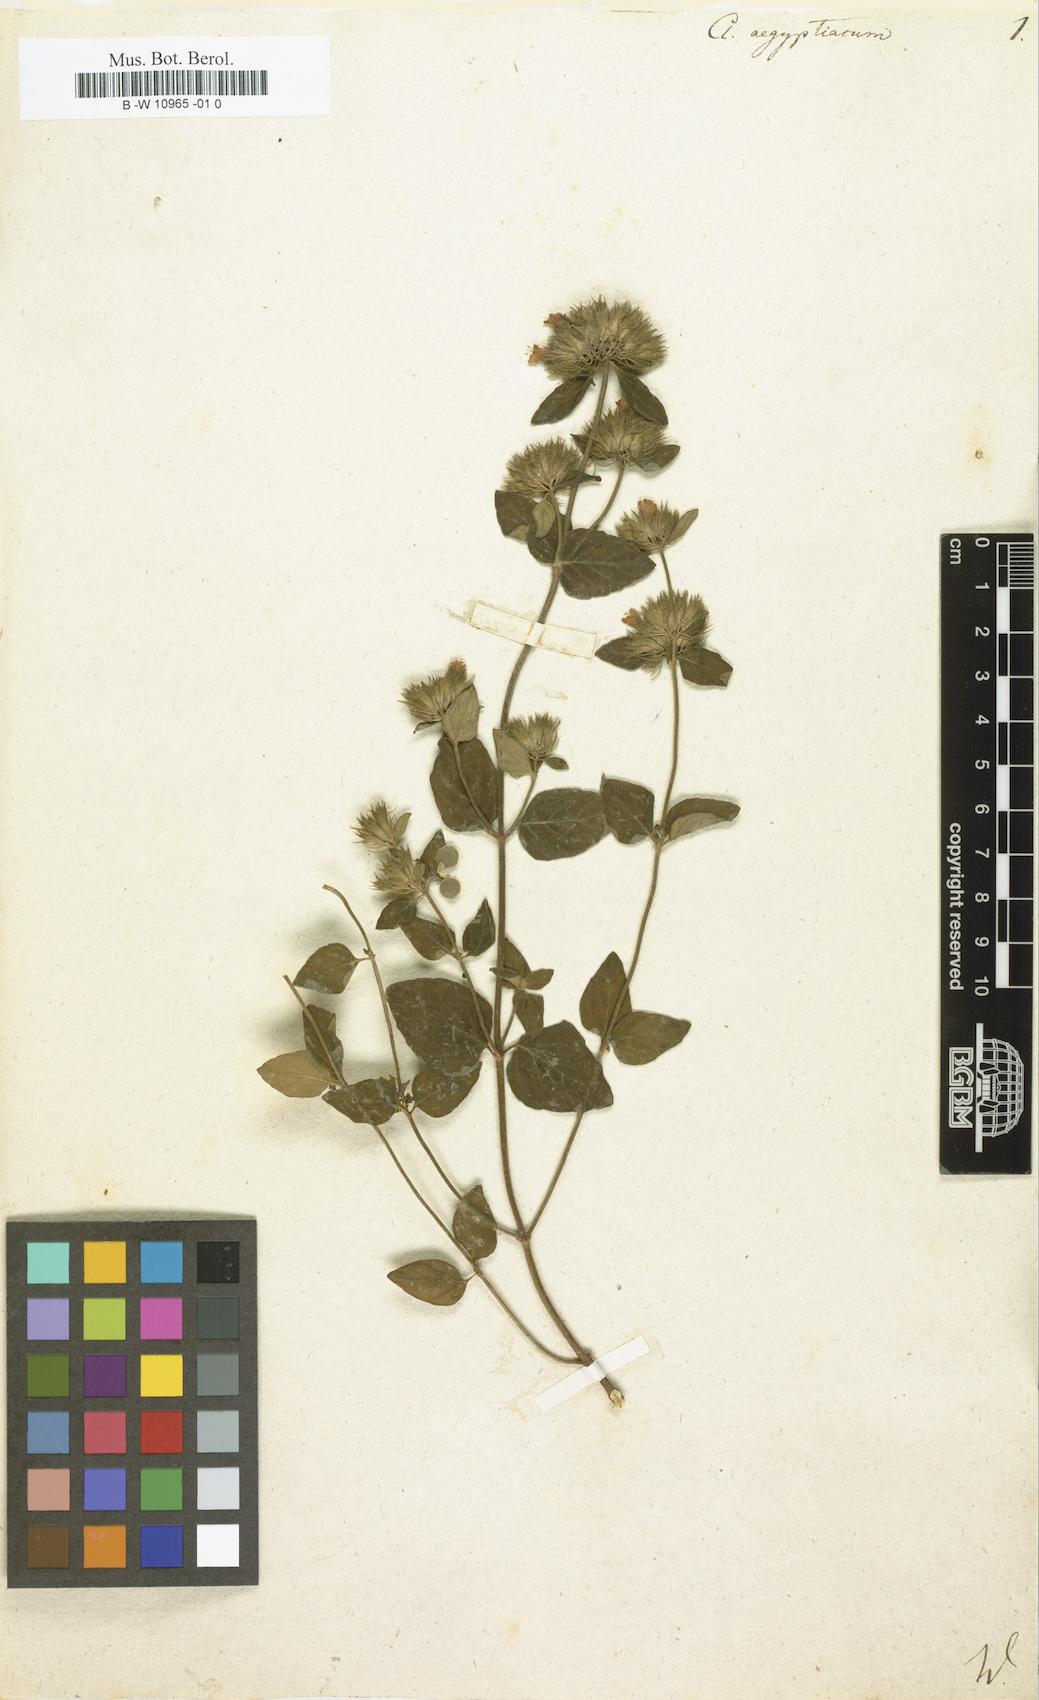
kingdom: Plantae
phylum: Tracheophyta
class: Magnoliopsida
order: Lamiales
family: Lamiaceae
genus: Clinopodium
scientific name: Clinopodium vulgare
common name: Wild basil
